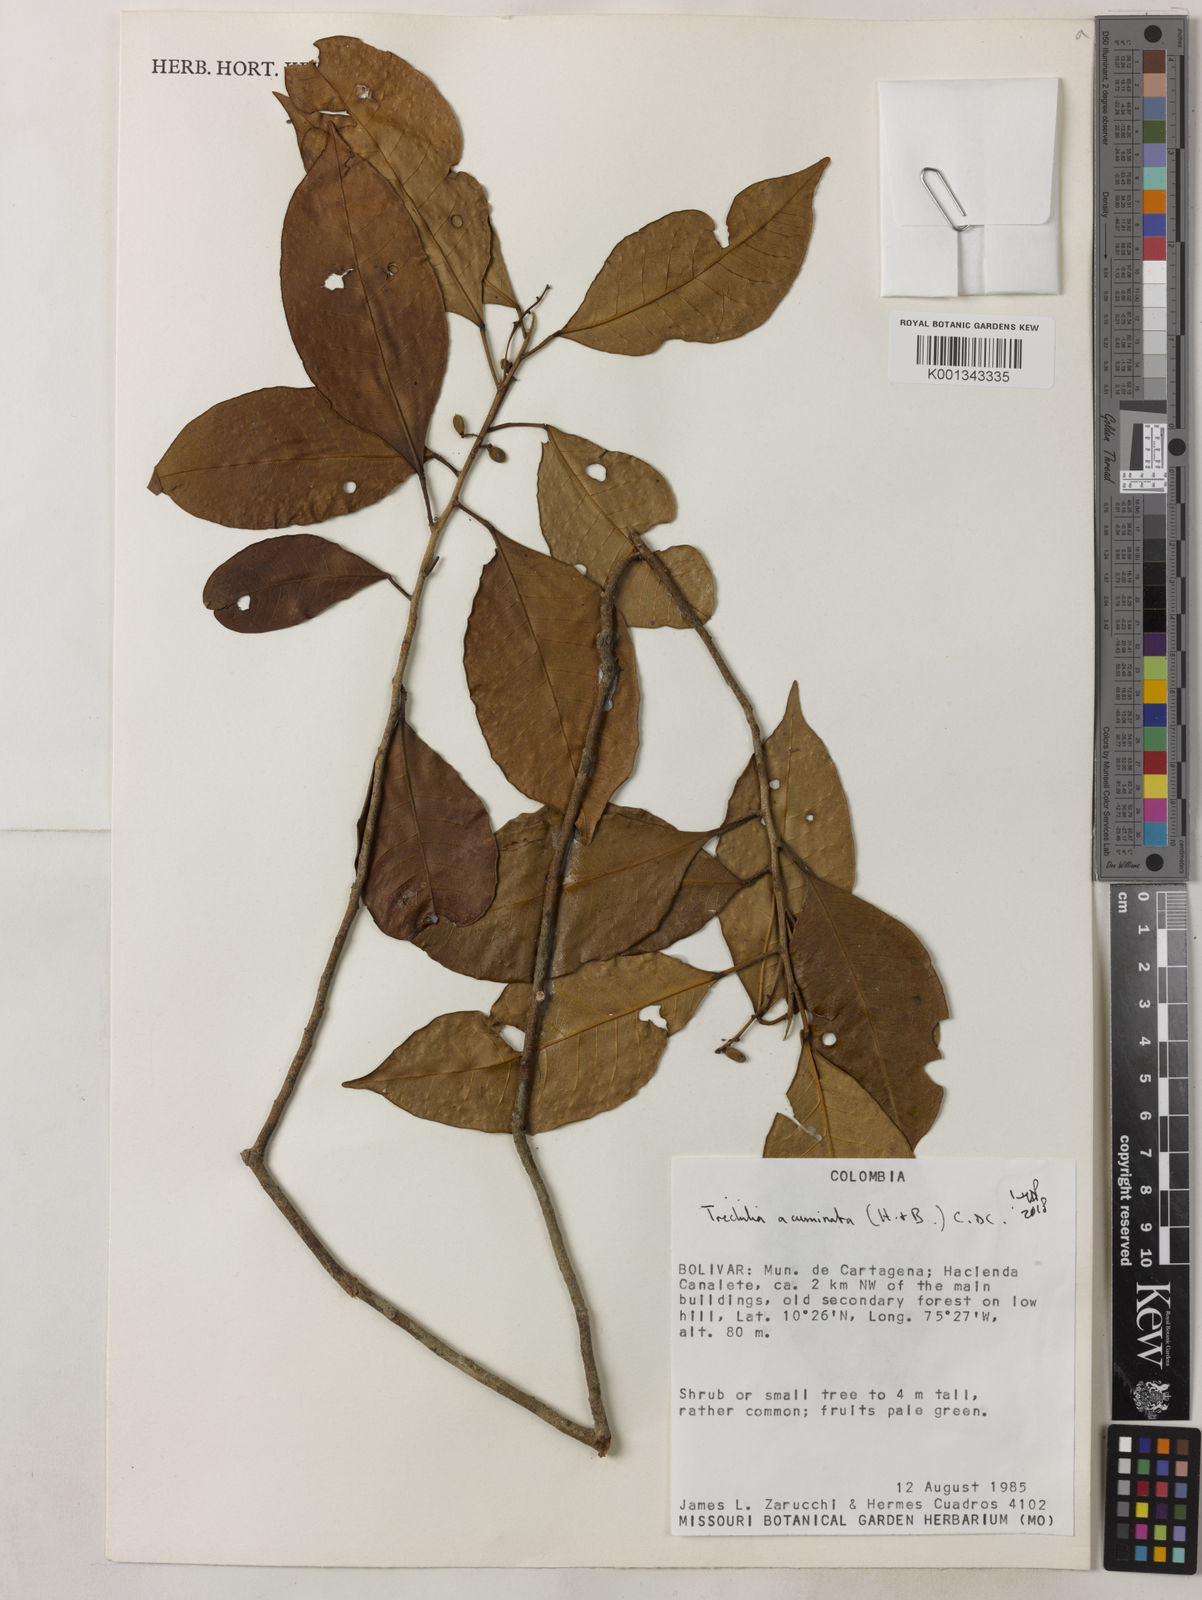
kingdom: Plantae
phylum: Tracheophyta
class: Magnoliopsida
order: Sapindales
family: Meliaceae
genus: Trichilia
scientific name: Trichilia acuminata
